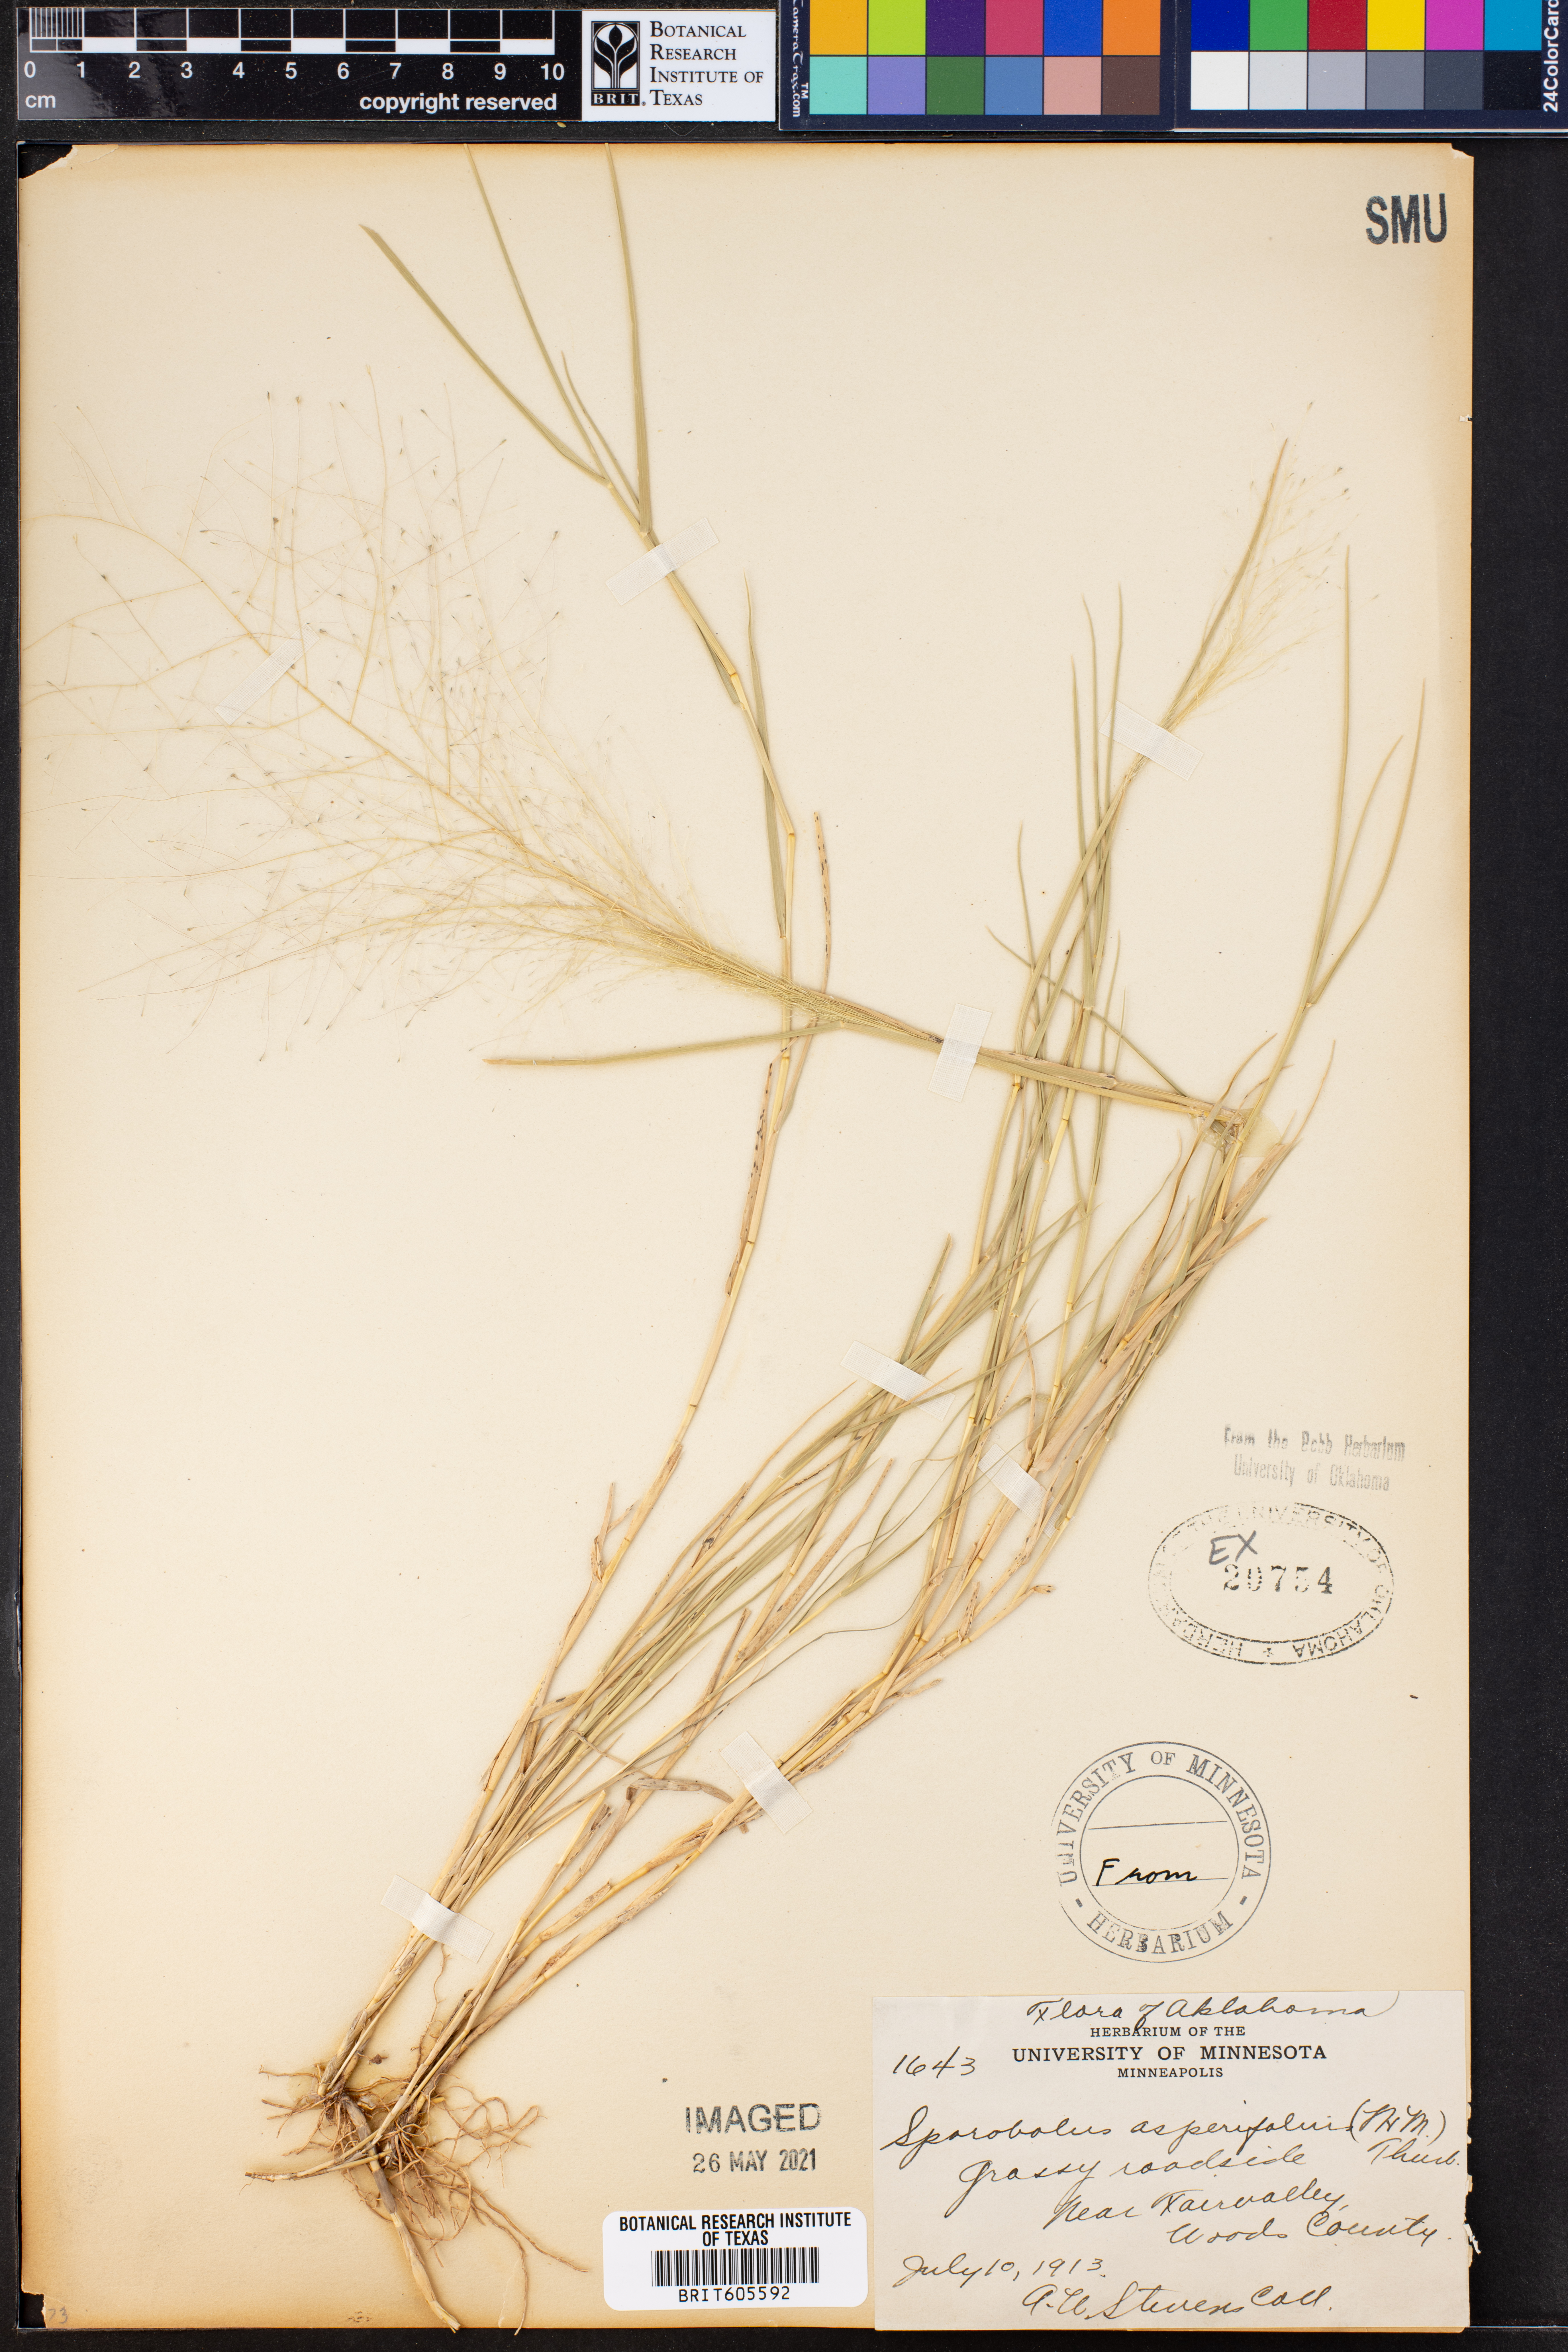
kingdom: Plantae
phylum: Tracheophyta
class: Liliopsida
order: Poales
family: Poaceae
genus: Muhlenbergia
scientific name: Muhlenbergia asperifolia
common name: Alkali muhly
